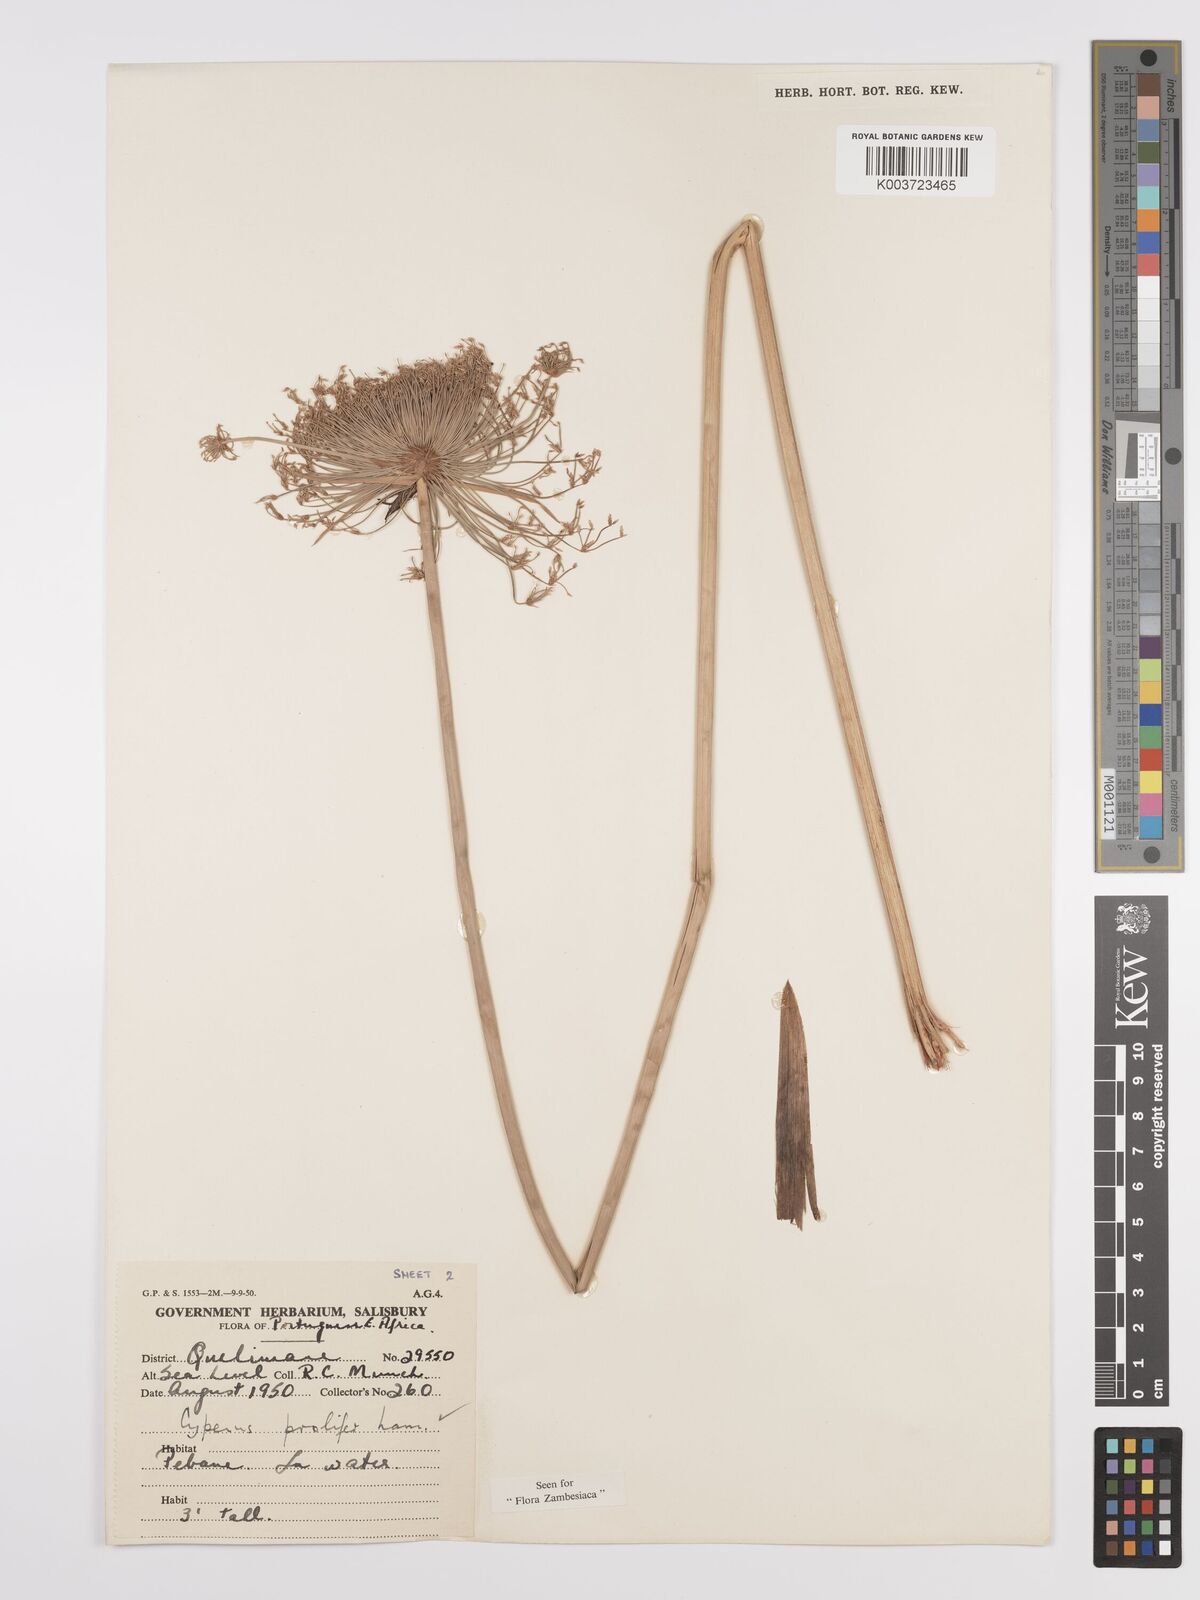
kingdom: Plantae
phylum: Tracheophyta
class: Liliopsida
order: Poales
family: Cyperaceae
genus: Cyperus
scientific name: Cyperus prolifer
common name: Miniature flatsedge
